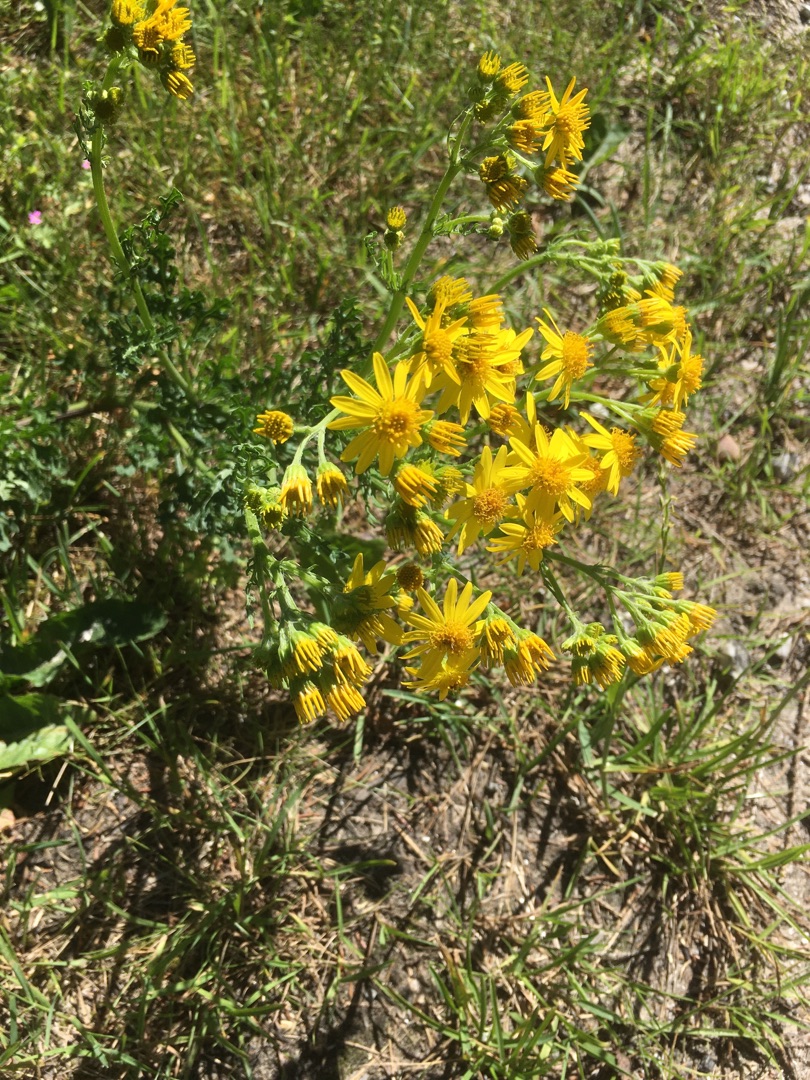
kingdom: Plantae
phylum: Tracheophyta
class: Magnoliopsida
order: Asterales
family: Asteraceae
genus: Jacobaea
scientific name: Jacobaea vulgaris
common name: Eng-brandbæger
